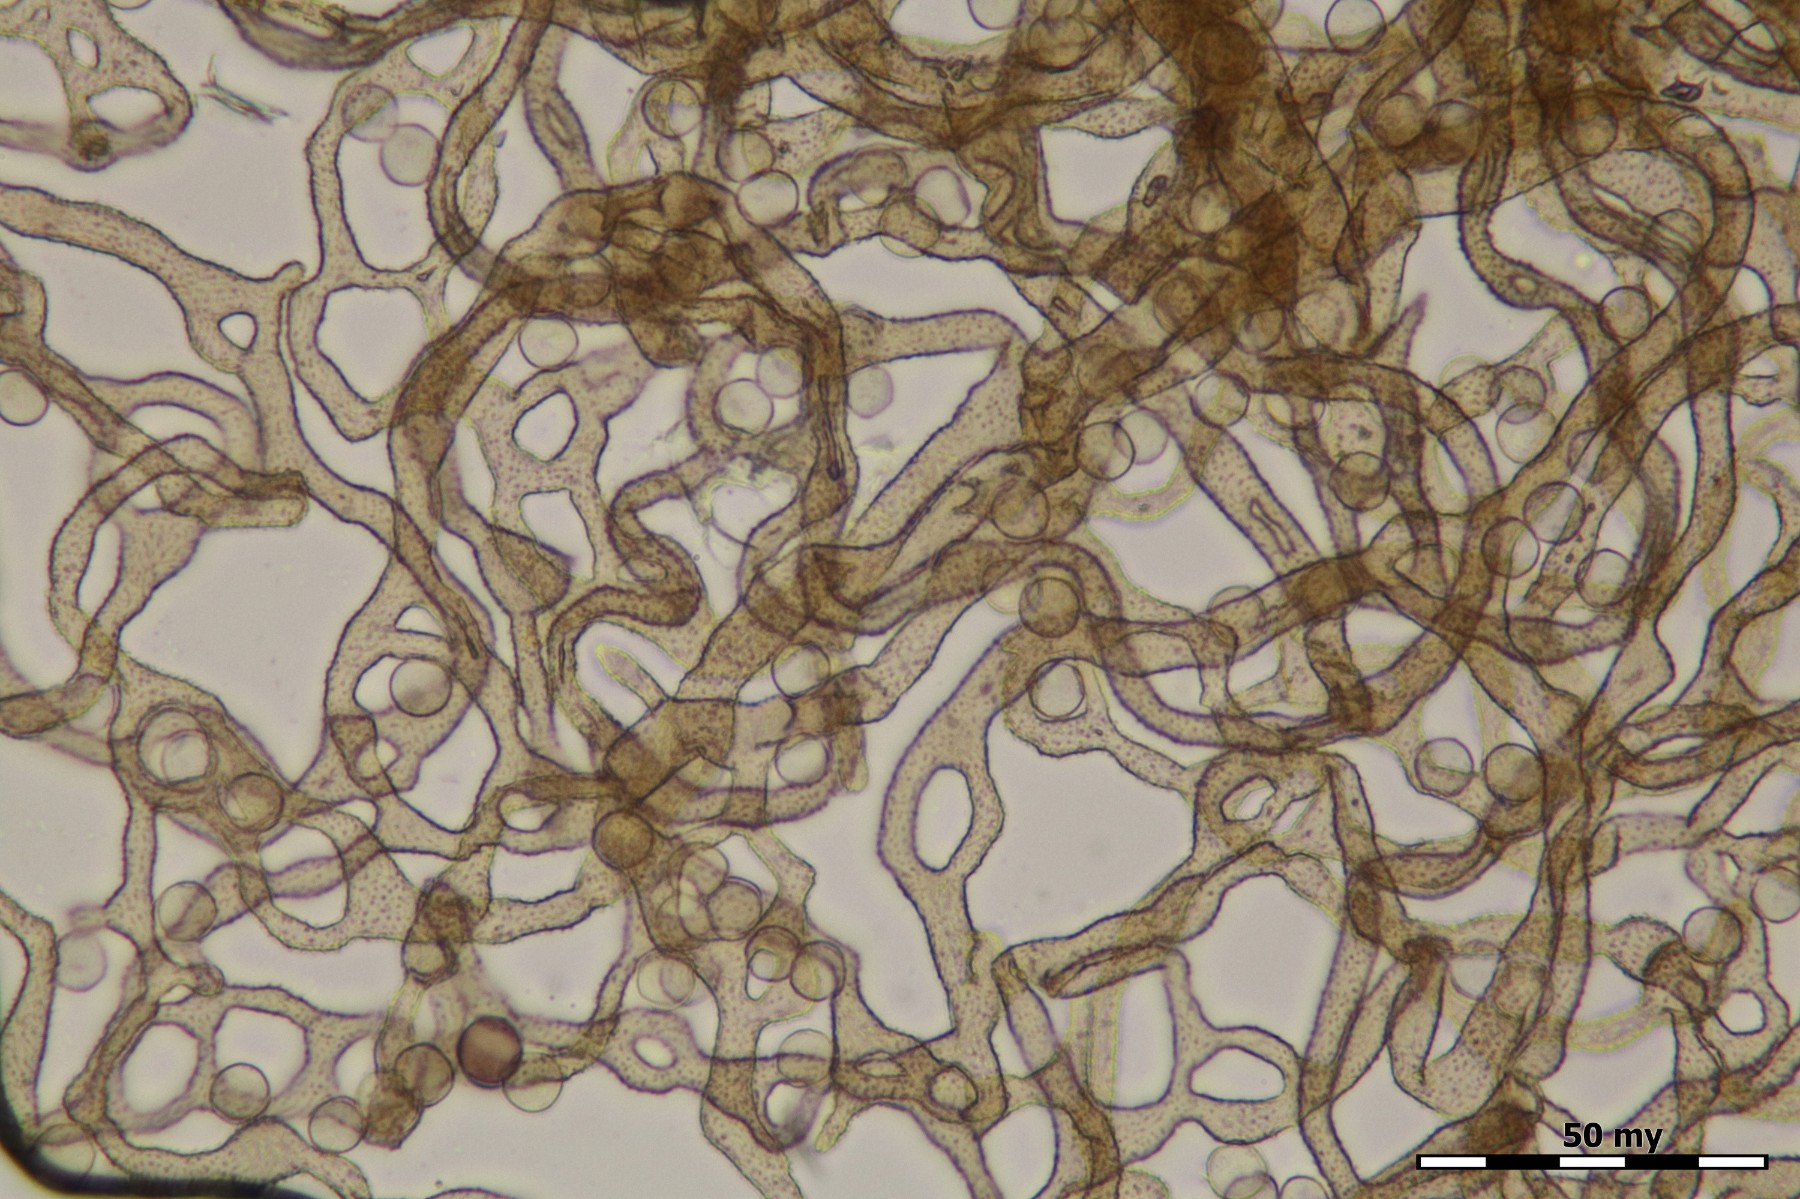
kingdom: Protozoa
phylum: Mycetozoa
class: Myxomycetes
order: Trichiales
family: Arcyriaceae
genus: Arcyria
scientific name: Arcyria cinerea
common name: White carnival candy slime mold
